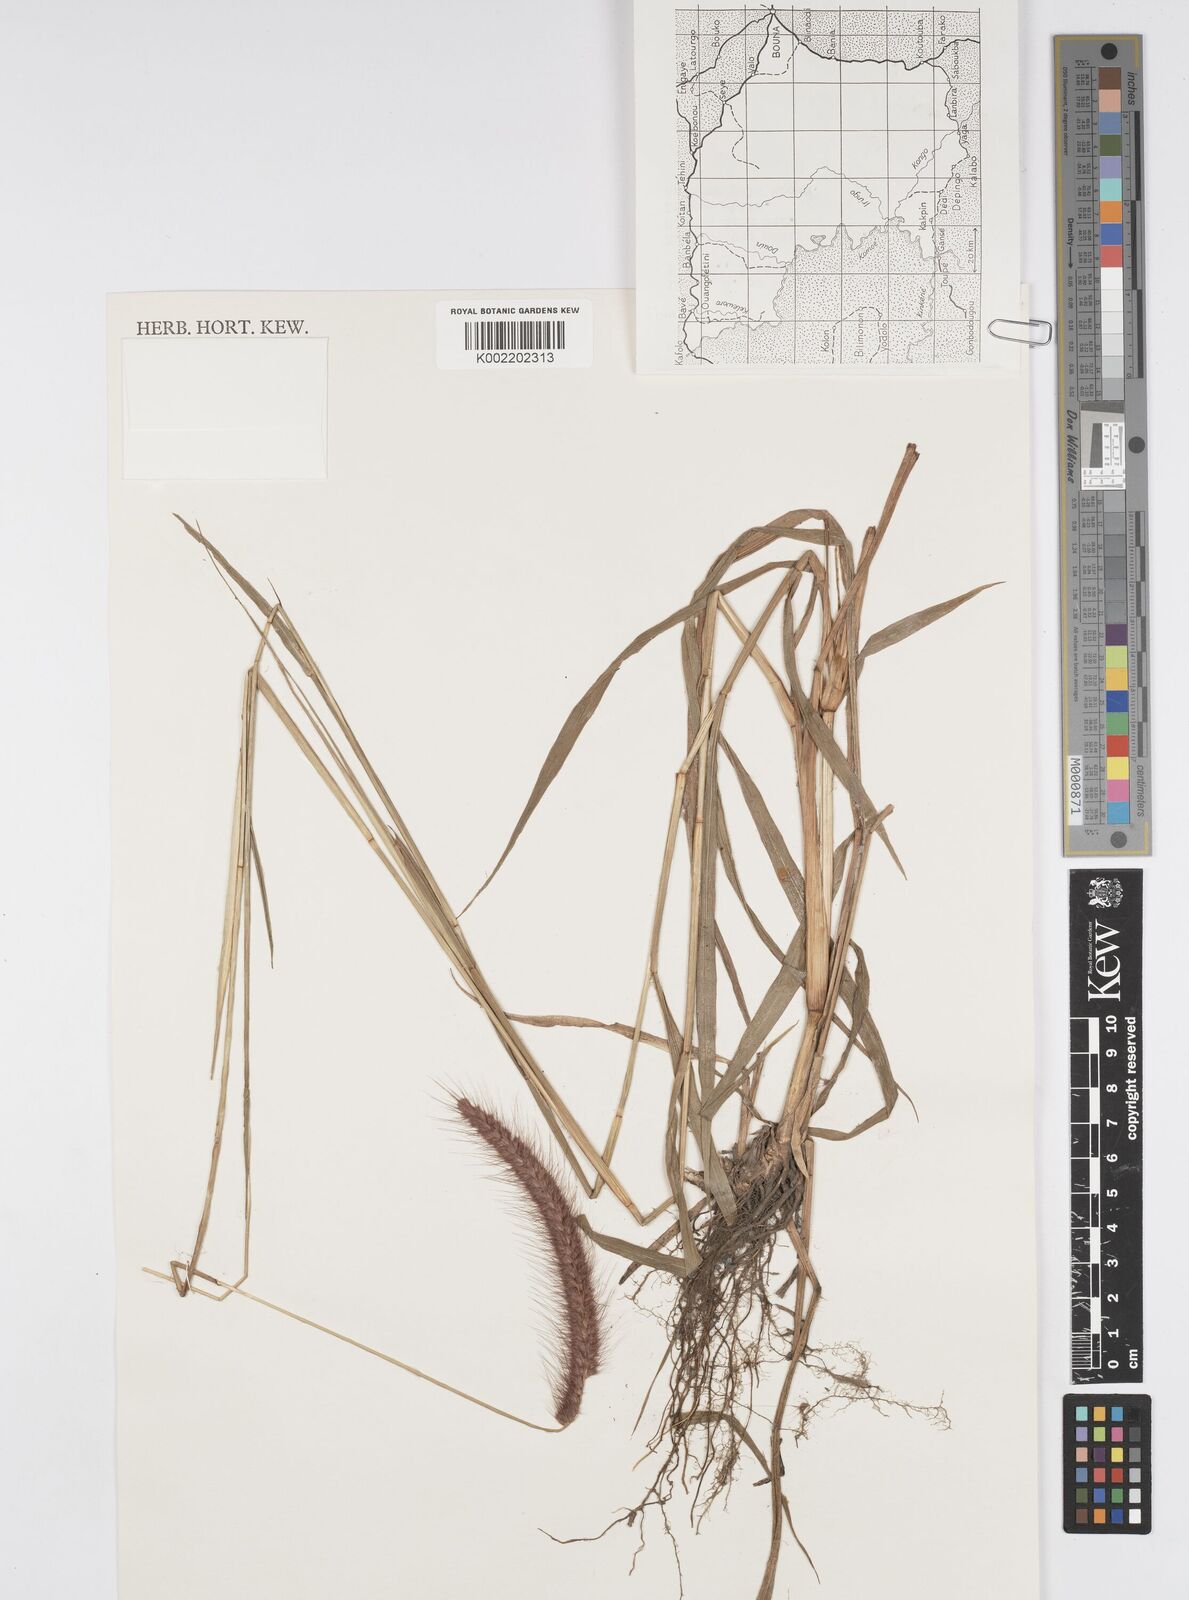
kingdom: Plantae
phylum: Tracheophyta
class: Liliopsida
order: Poales
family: Poaceae
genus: Setaria
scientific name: Setaria parviflora
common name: Knotroot bristle-grass
